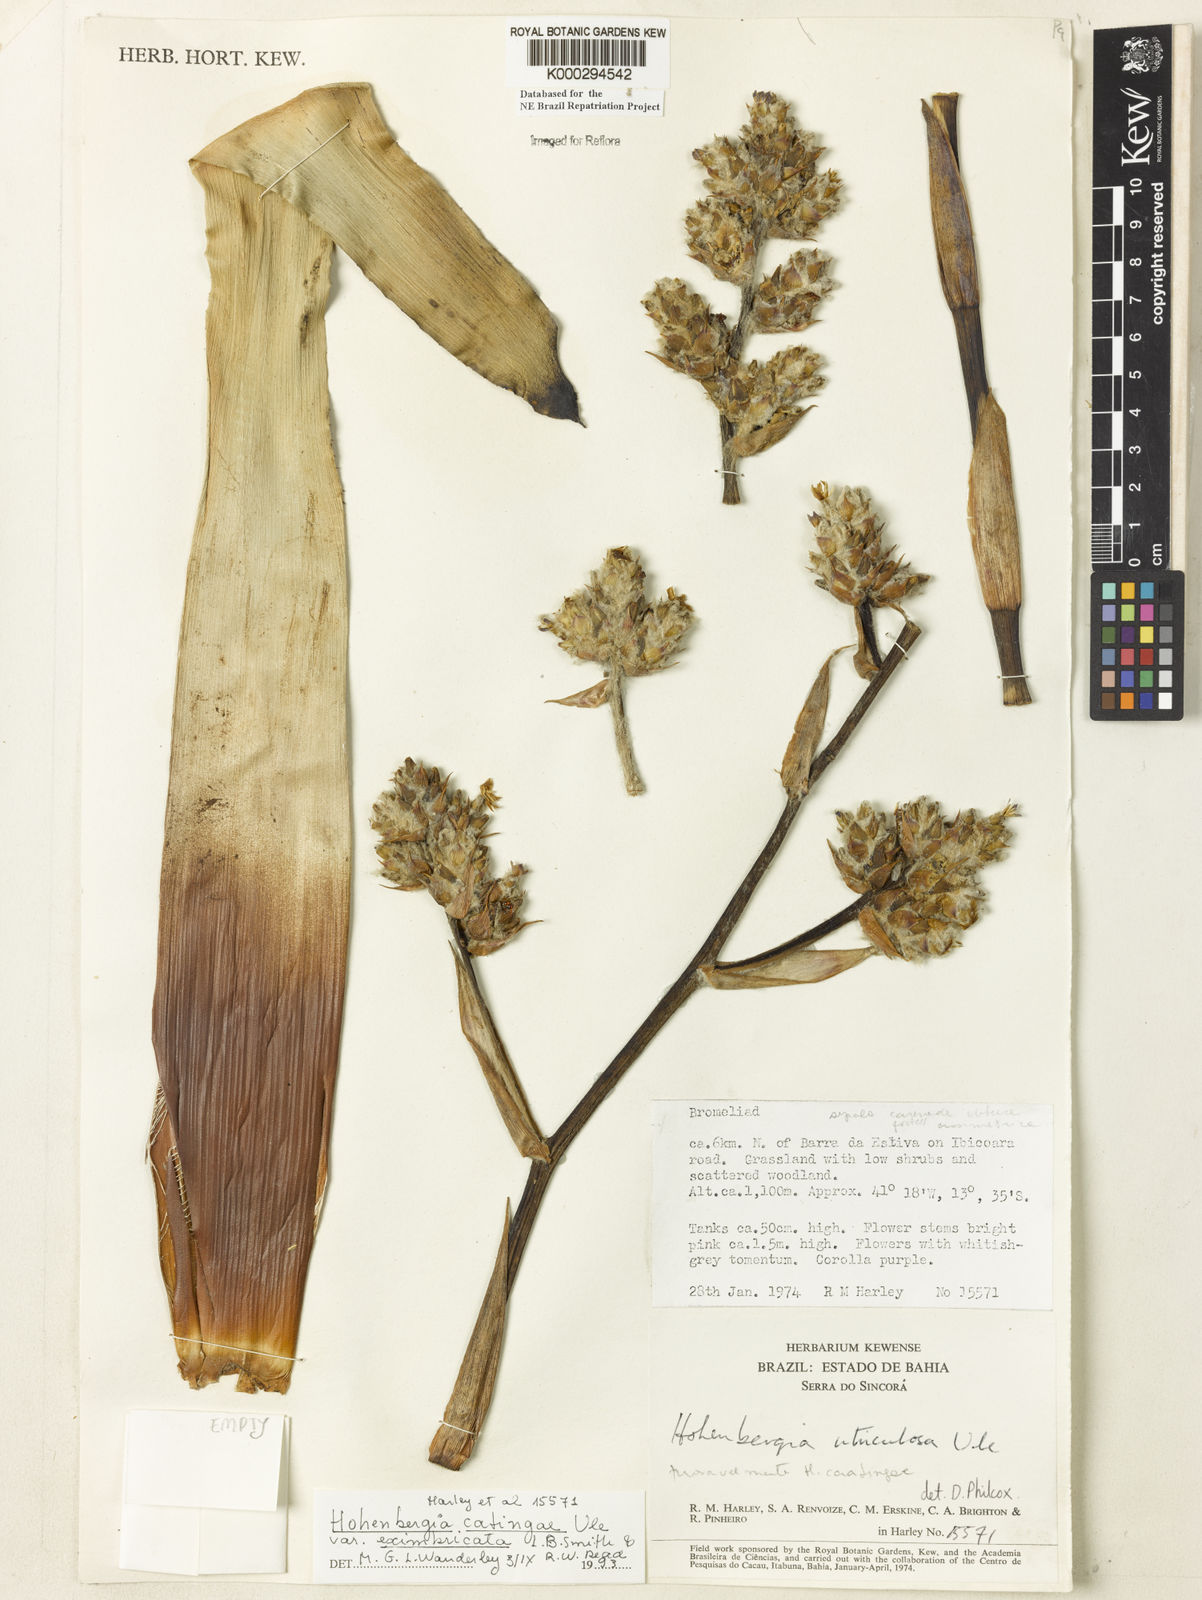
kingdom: Plantae
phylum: Tracheophyta
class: Liliopsida
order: Poales
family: Bromeliaceae
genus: Hohenbergia
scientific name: Hohenbergia catingae
